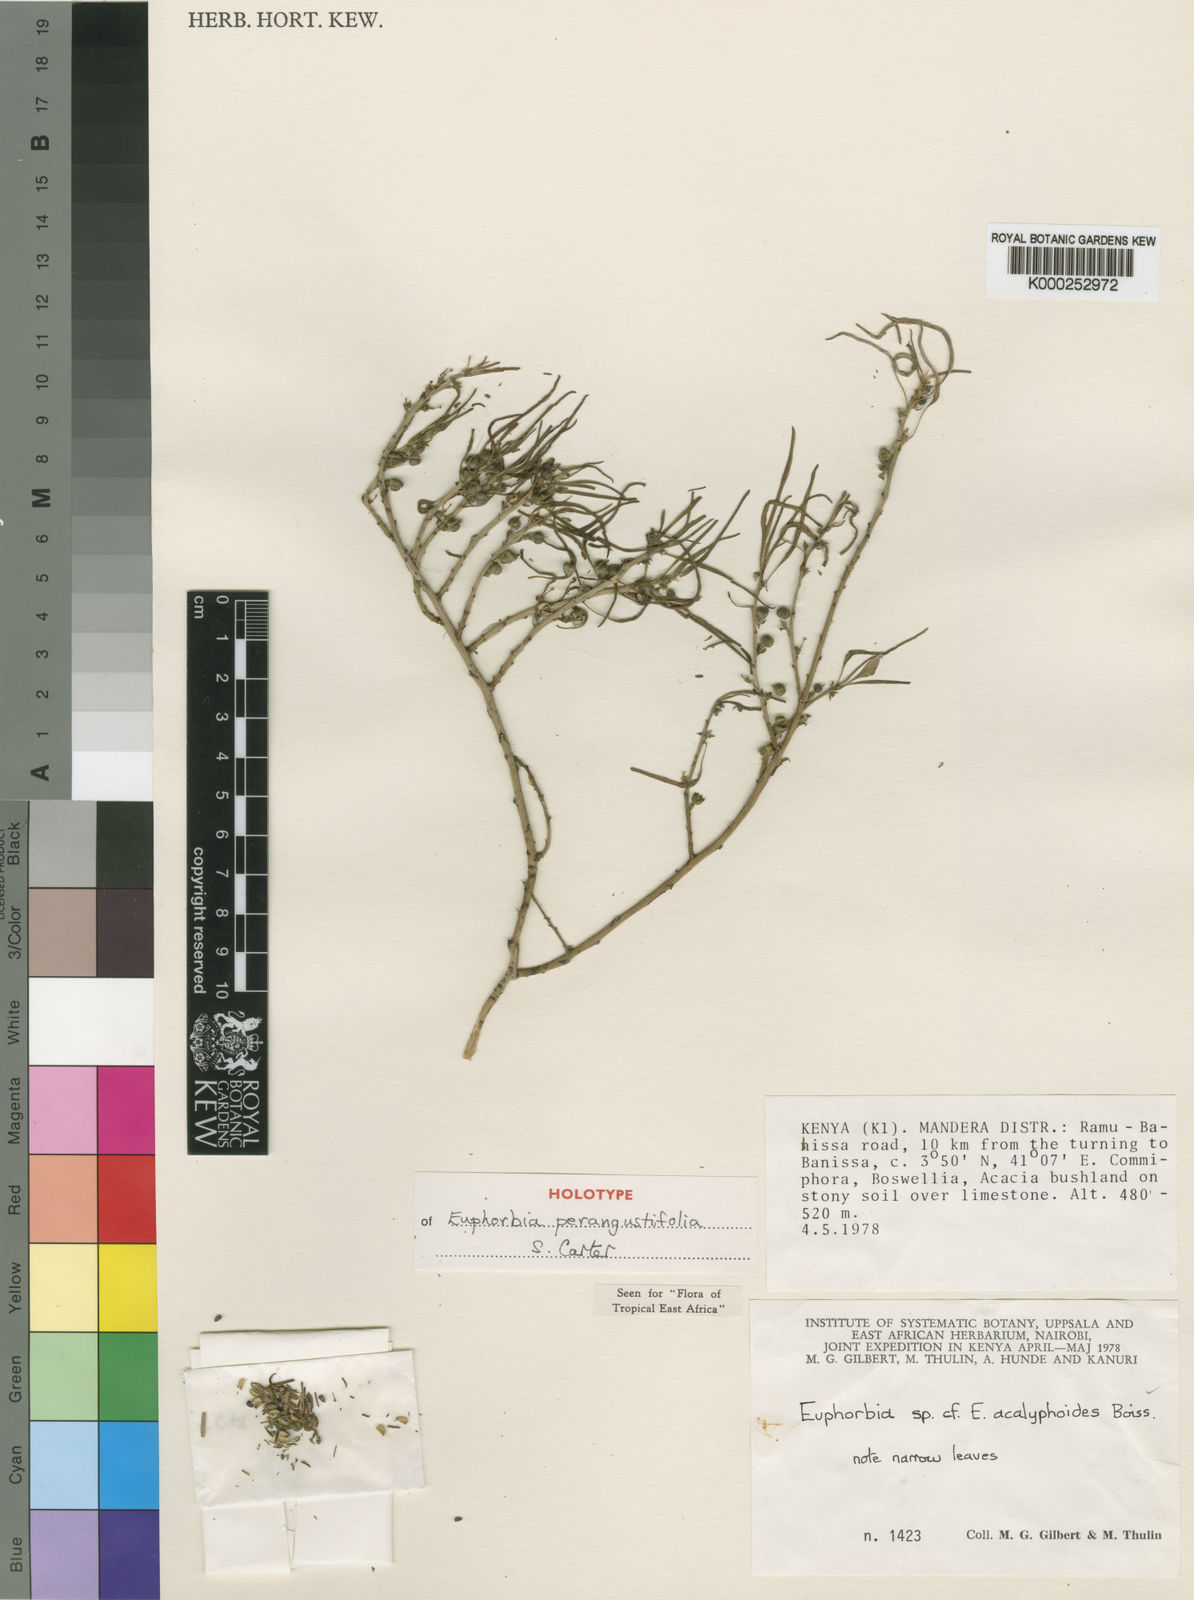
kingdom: Plantae
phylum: Tracheophyta
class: Magnoliopsida
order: Malpighiales
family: Euphorbiaceae
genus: Euphorbia
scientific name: Euphorbia perangustifolia
